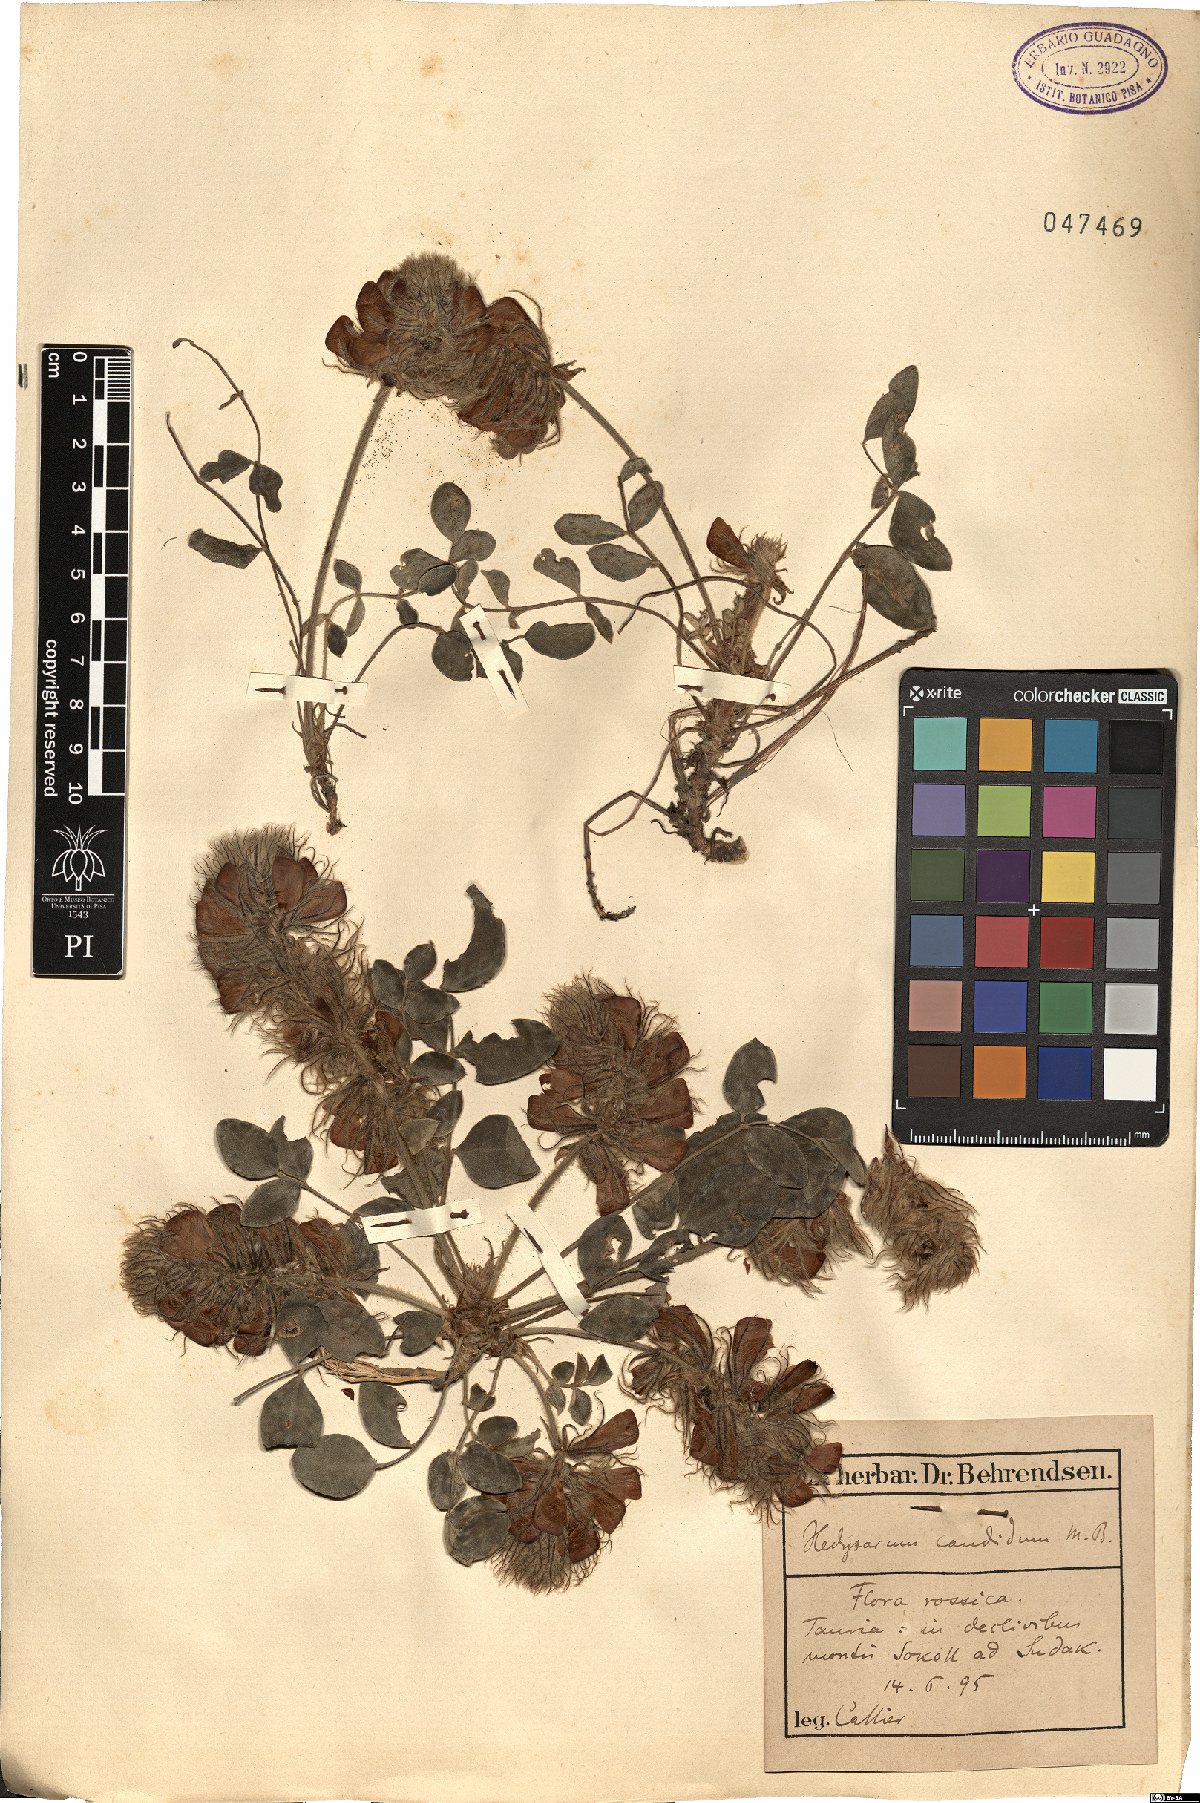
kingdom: Plantae
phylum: Tracheophyta
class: Magnoliopsida
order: Fabales
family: Fabaceae
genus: Hedysarum
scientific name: Hedysarum candidum
